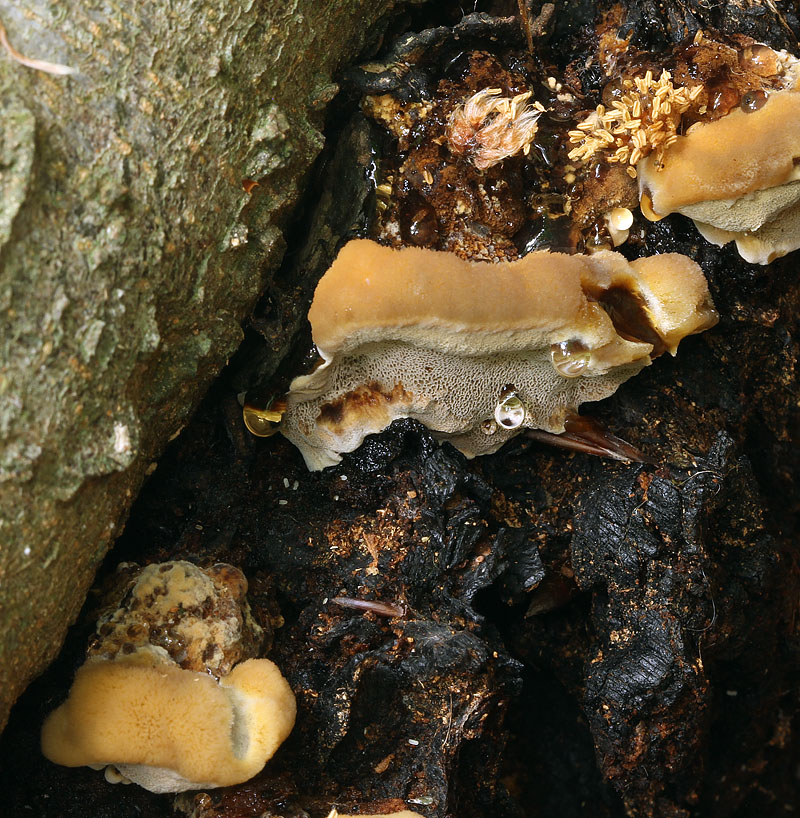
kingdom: Fungi
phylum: Basidiomycota
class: Agaricomycetes
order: Hymenochaetales
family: Hymenochaetaceae
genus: Inonotus
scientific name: Inonotus cuticularis
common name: kroghåret spejlporesvamp
